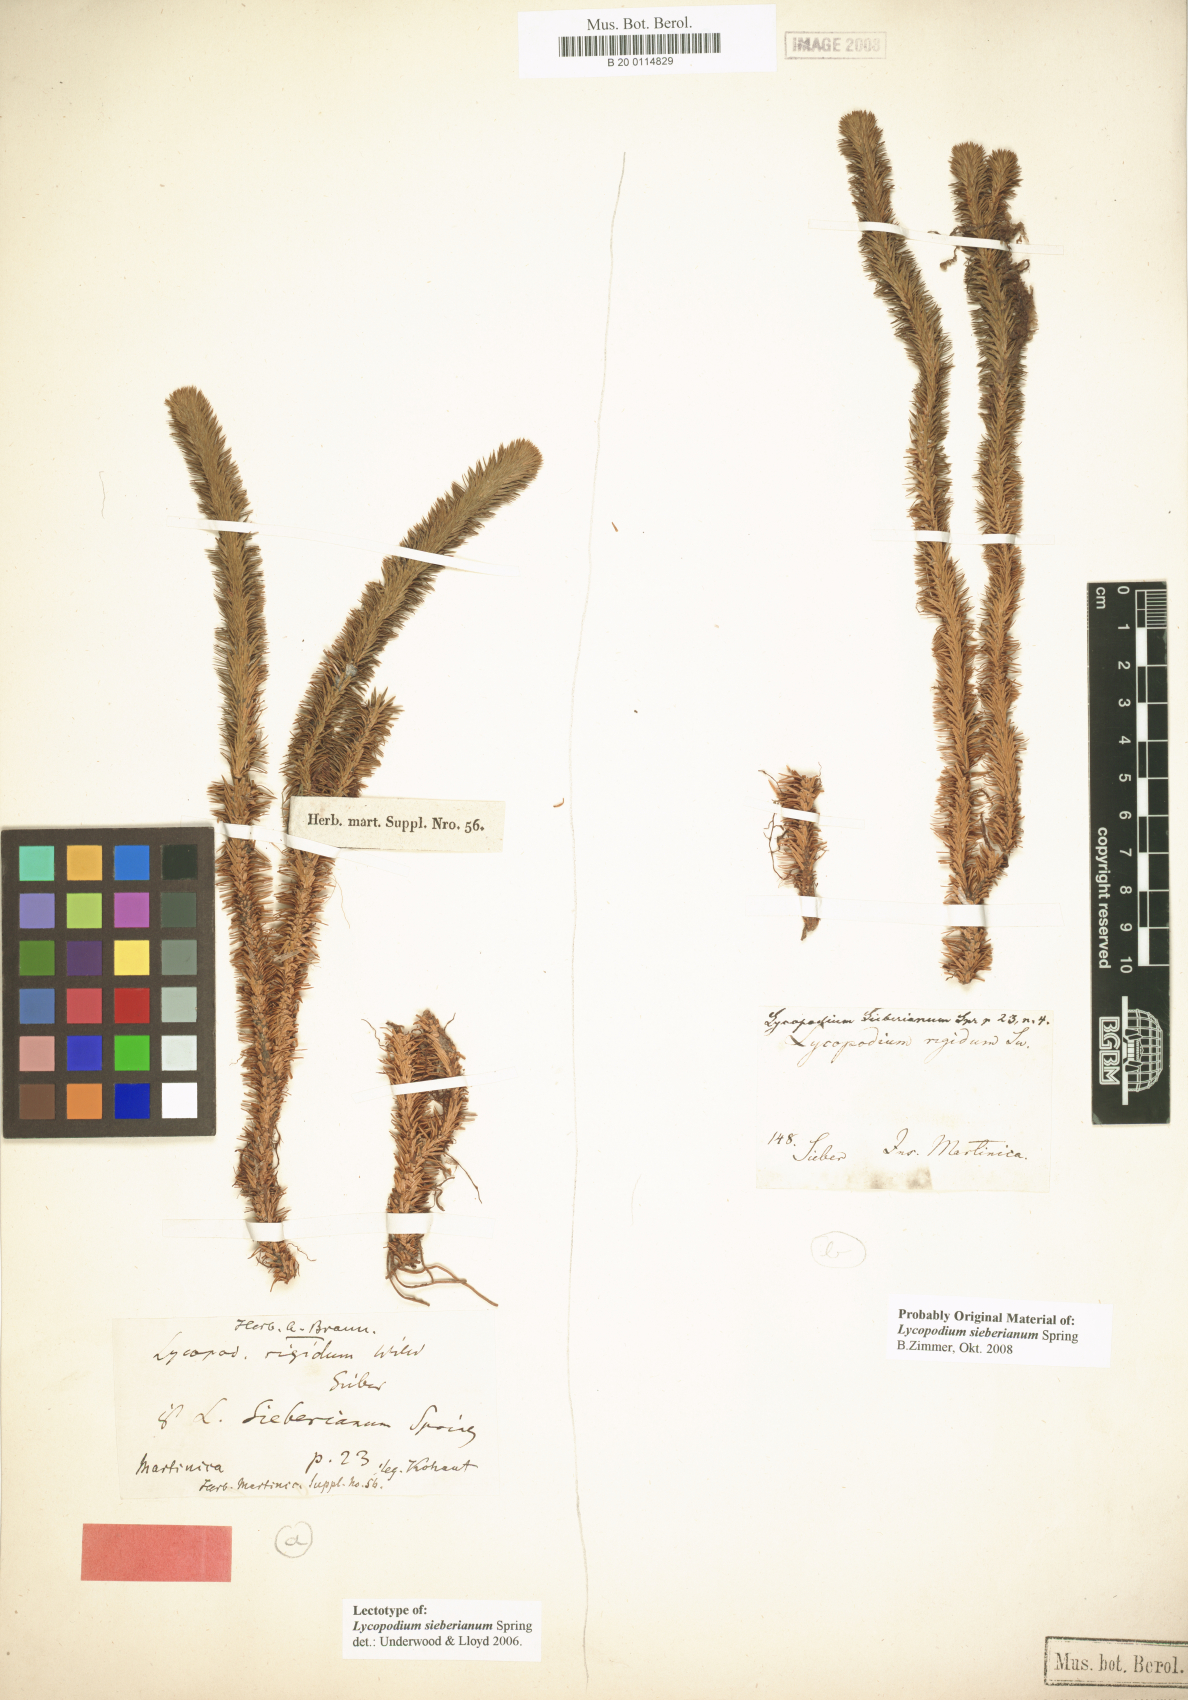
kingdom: Plantae
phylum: Tracheophyta
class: Lycopodiopsida
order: Lycopodiales
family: Lycopodiaceae
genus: Phlegmariurus
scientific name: Phlegmariurus sieberianus
